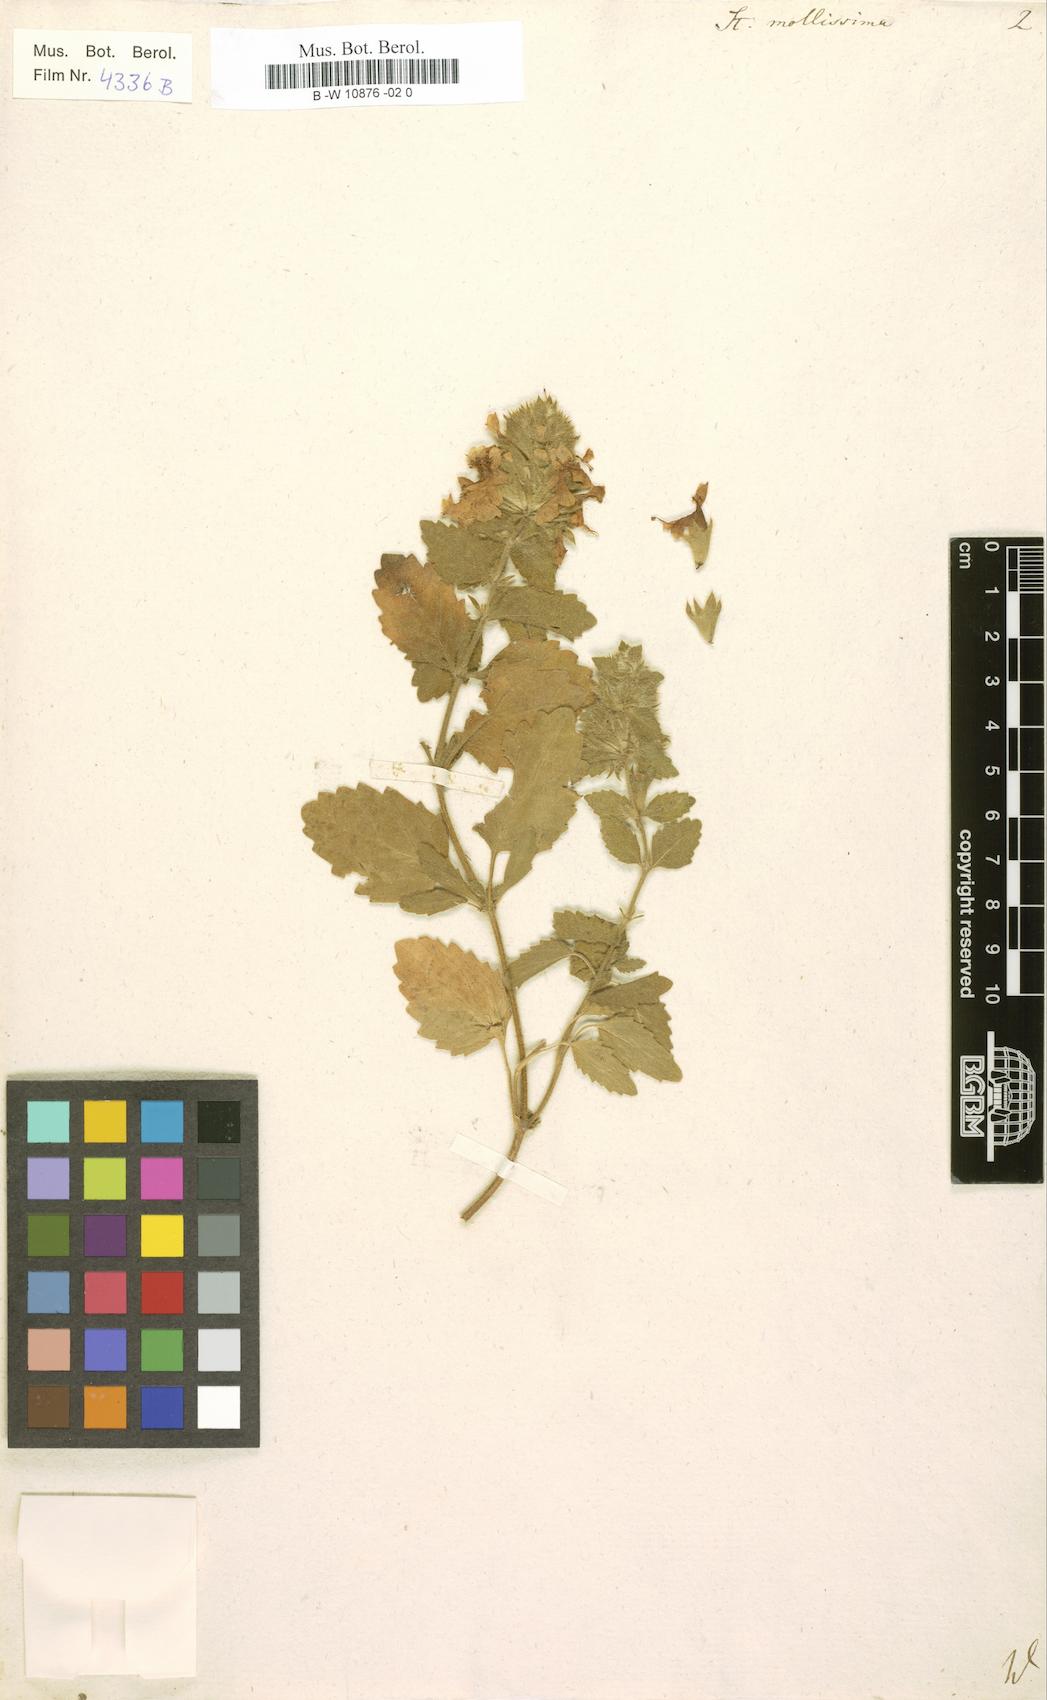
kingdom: Plantae
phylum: Tracheophyta
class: Magnoliopsida
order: Lamiales
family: Lamiaceae
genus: Stachys
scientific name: Stachys mollissima
